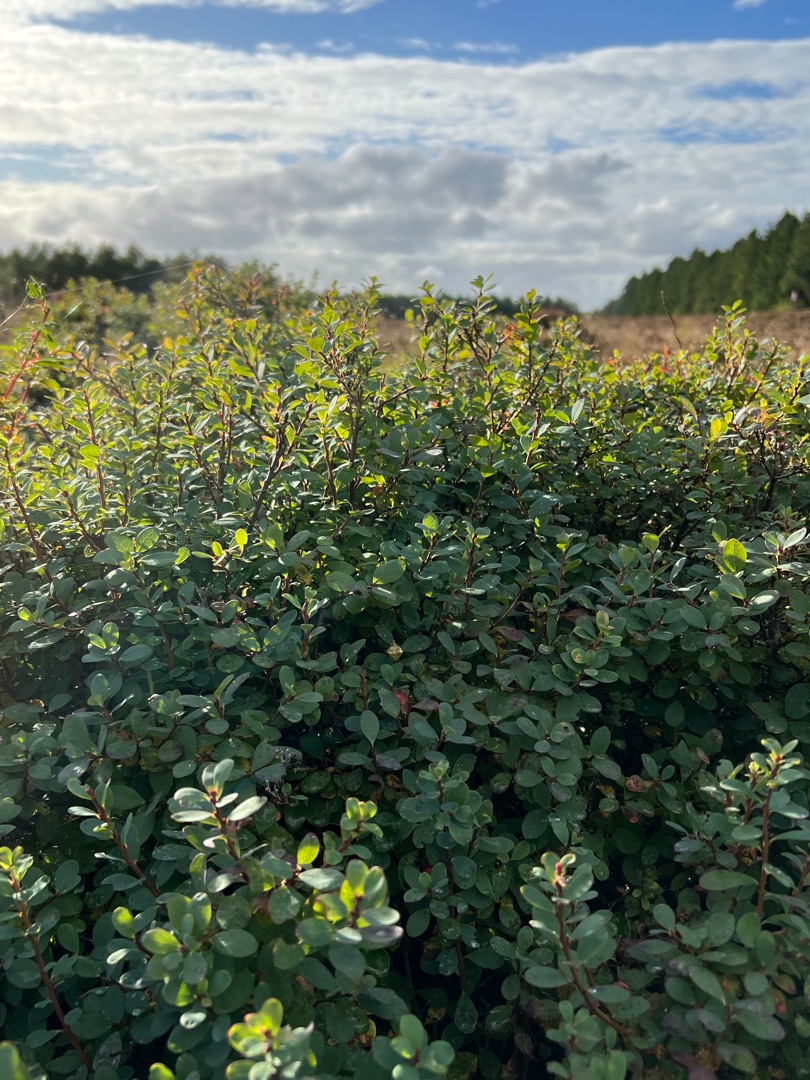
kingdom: Plantae
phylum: Tracheophyta
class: Magnoliopsida
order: Ericales
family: Ericaceae
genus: Vaccinium
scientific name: Vaccinium uliginosum
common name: Mose-bølle
